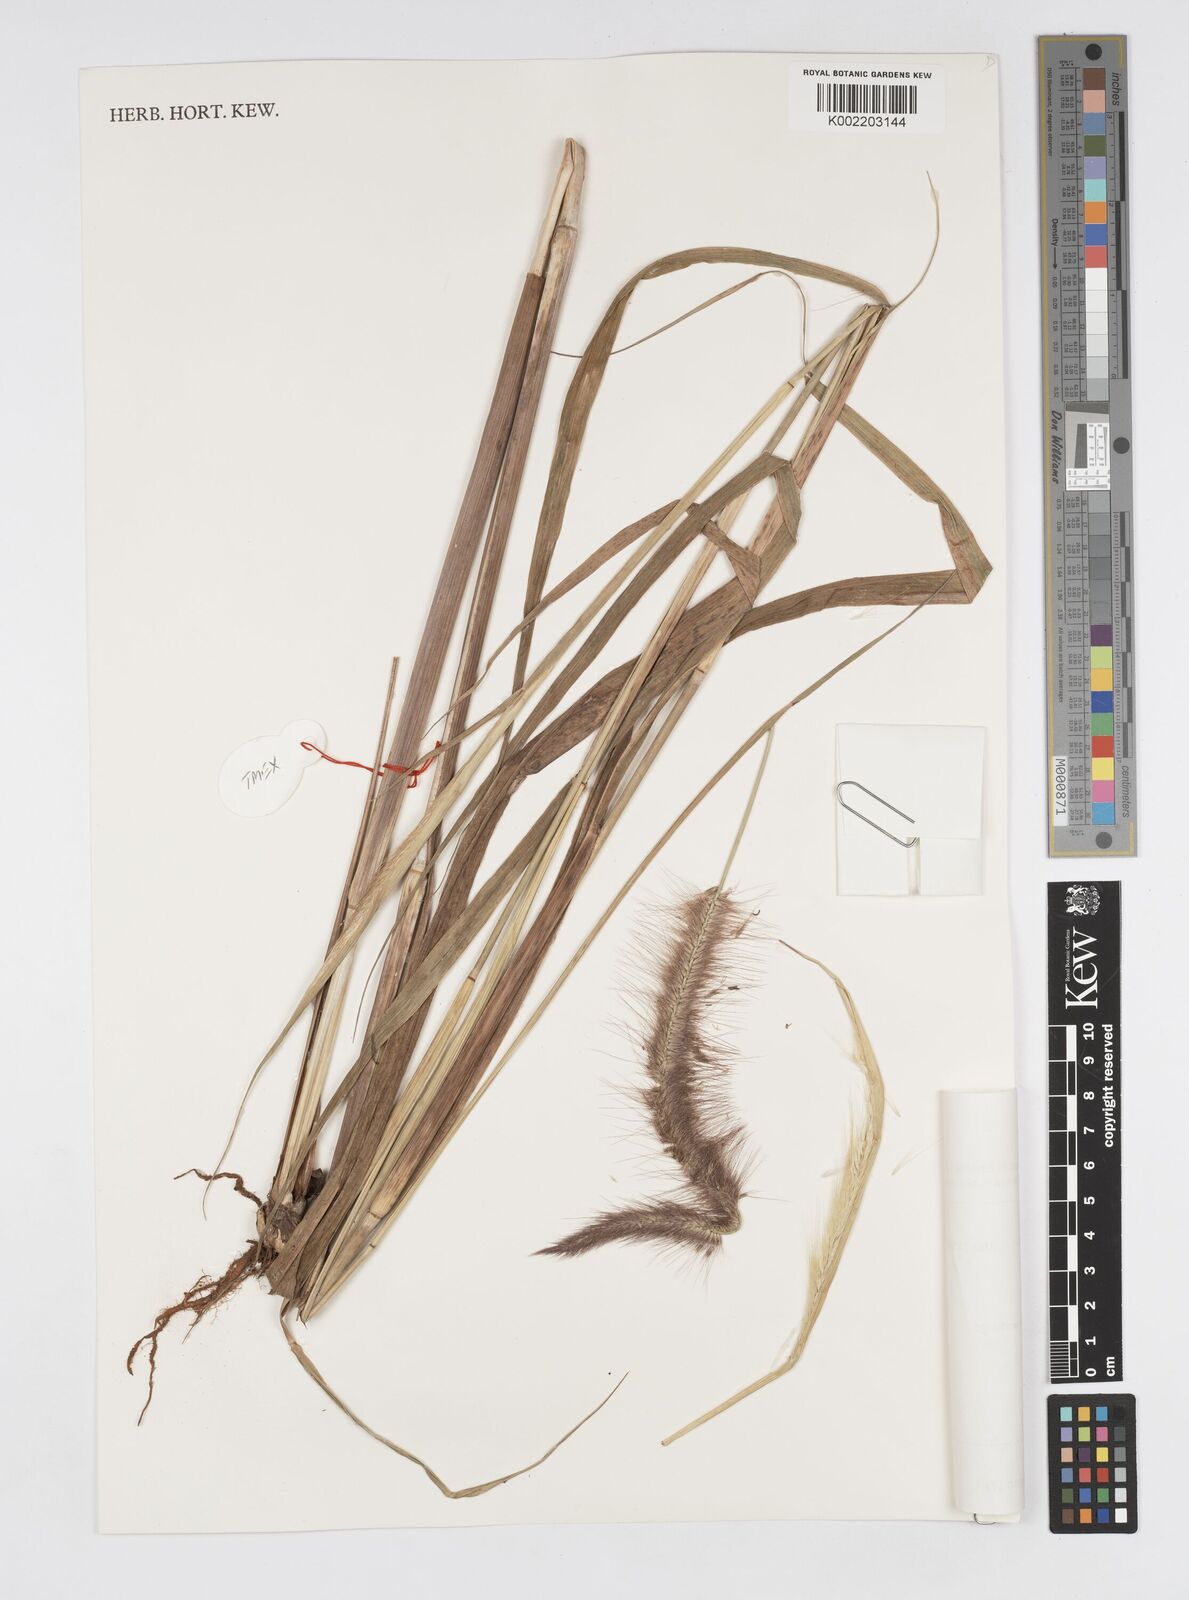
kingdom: Plantae
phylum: Tracheophyta
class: Liliopsida
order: Poales
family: Poaceae
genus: Setaria
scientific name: Setaria parviflora
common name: Knotroot bristle-grass
